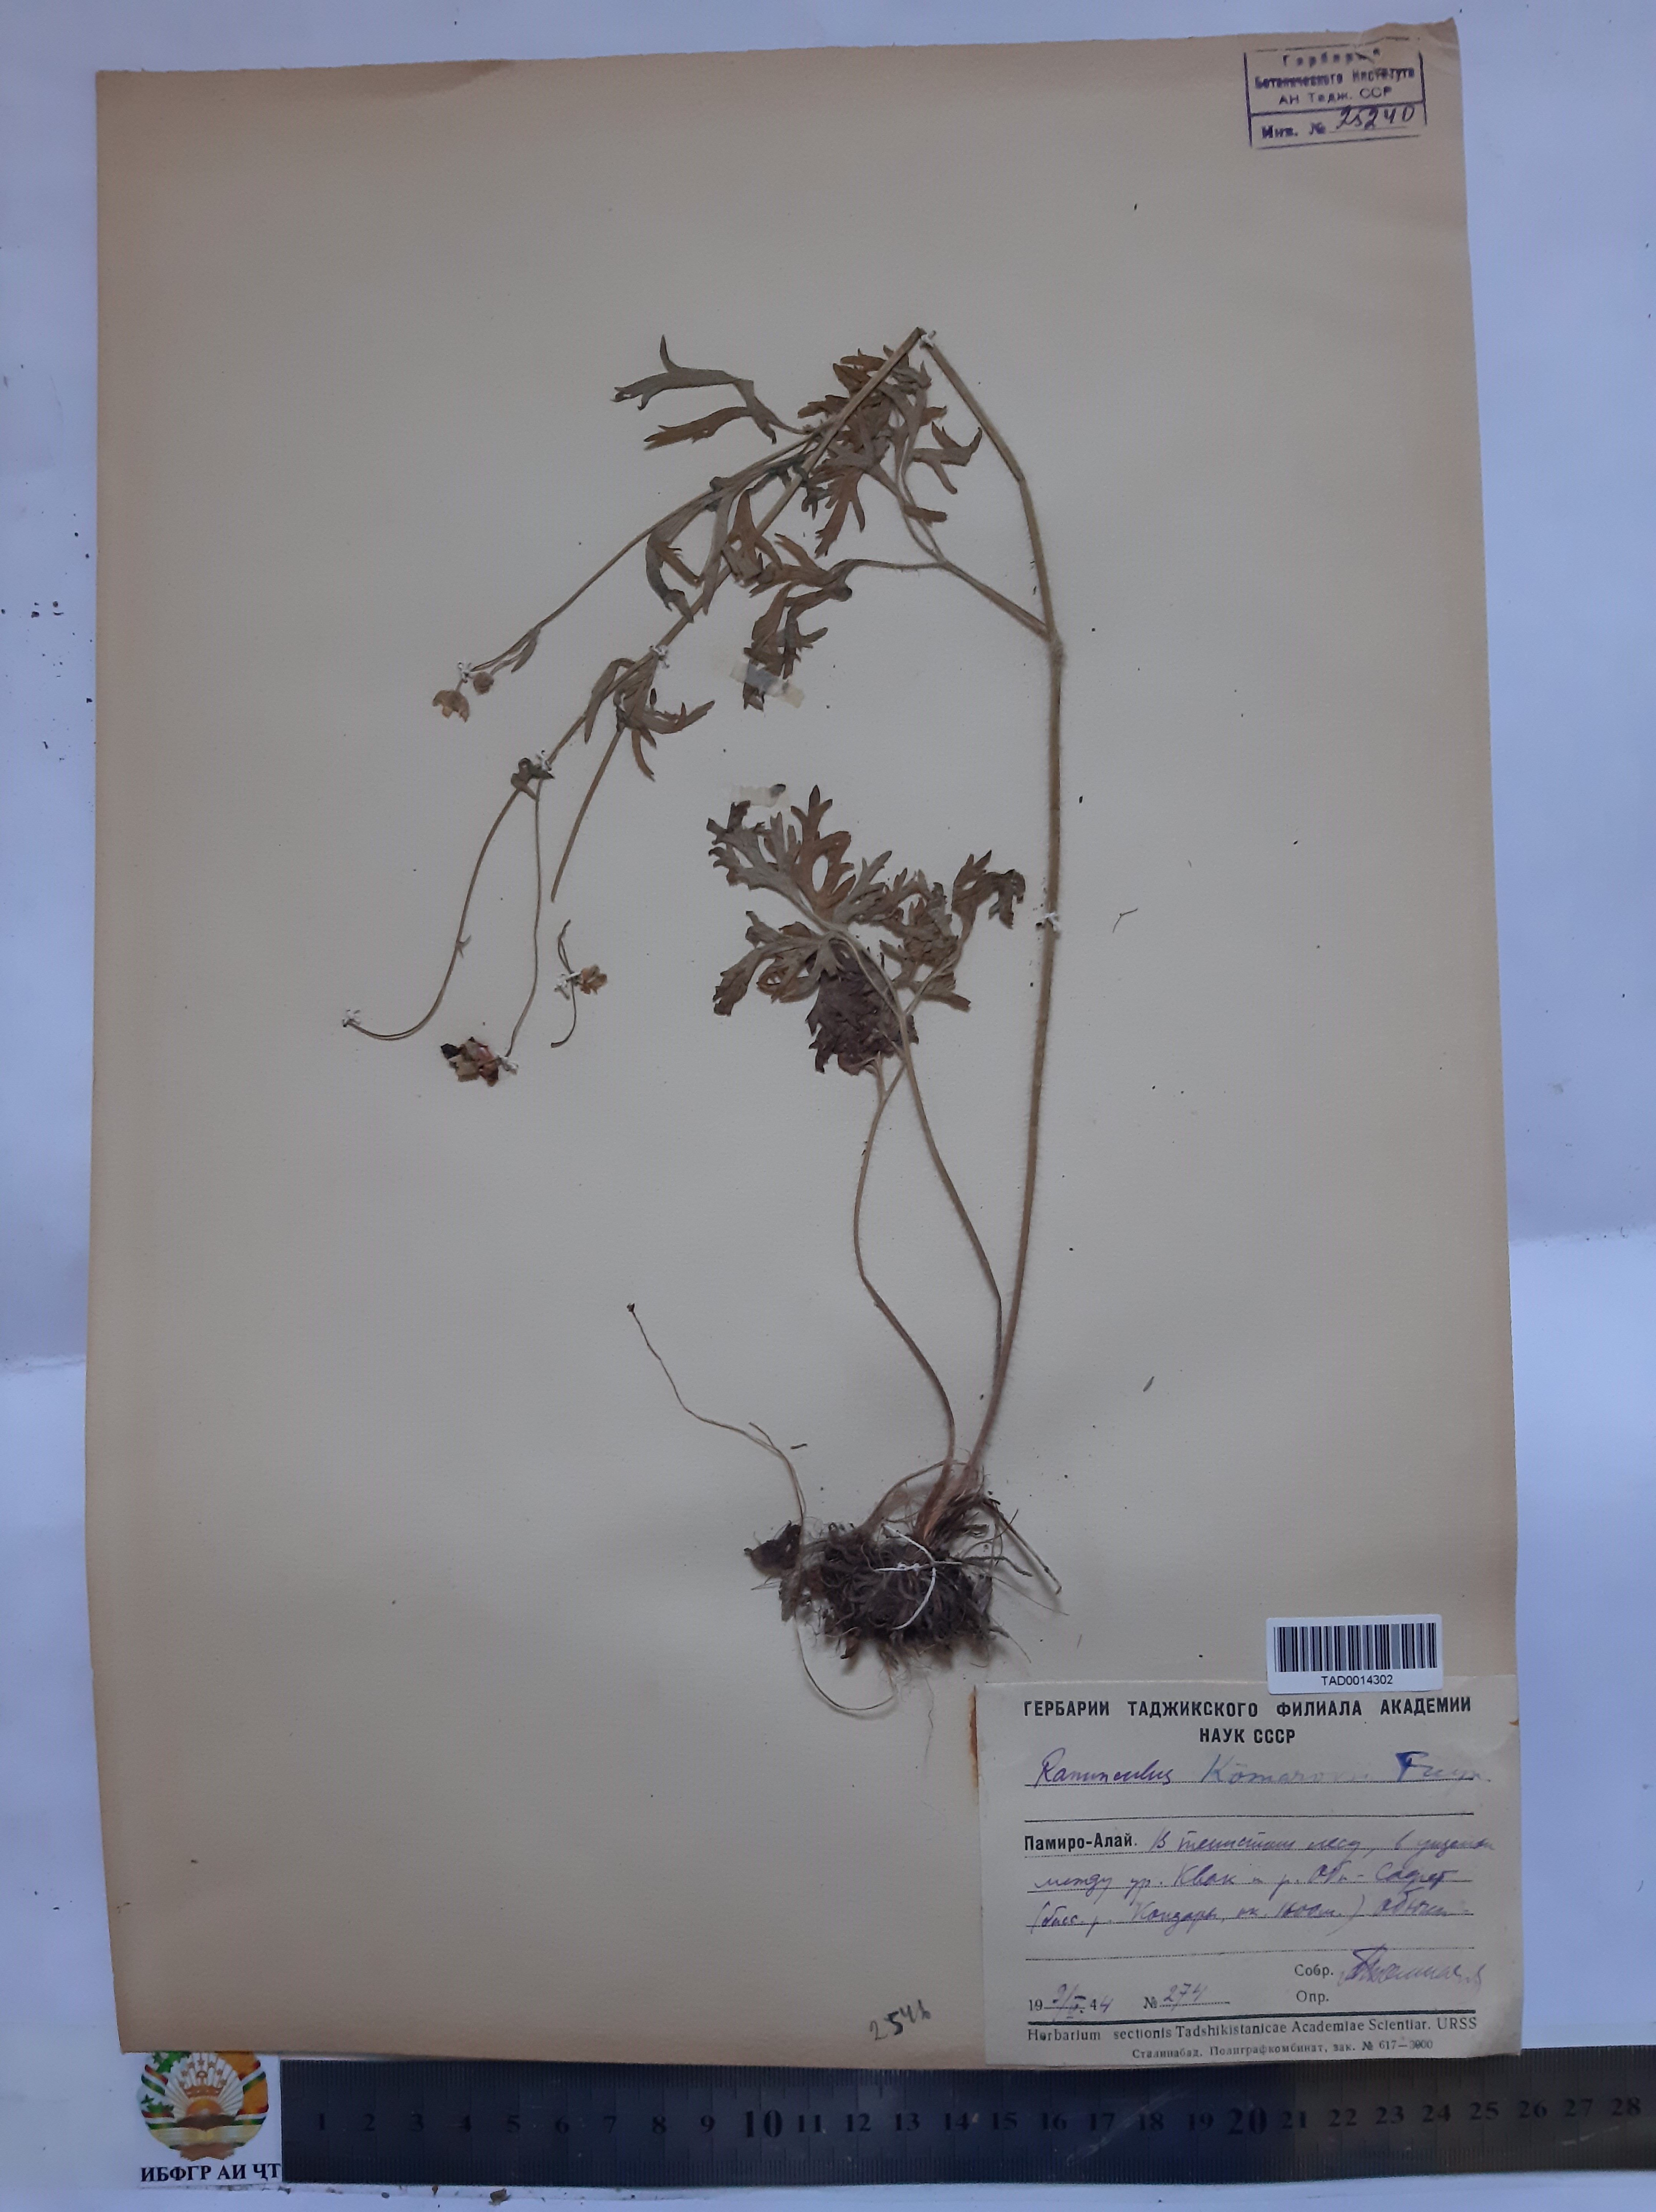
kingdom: Plantae
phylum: Tracheophyta
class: Magnoliopsida
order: Ranunculales
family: Ranunculaceae
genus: Ranunculus
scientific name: Ranunculus komarovii
